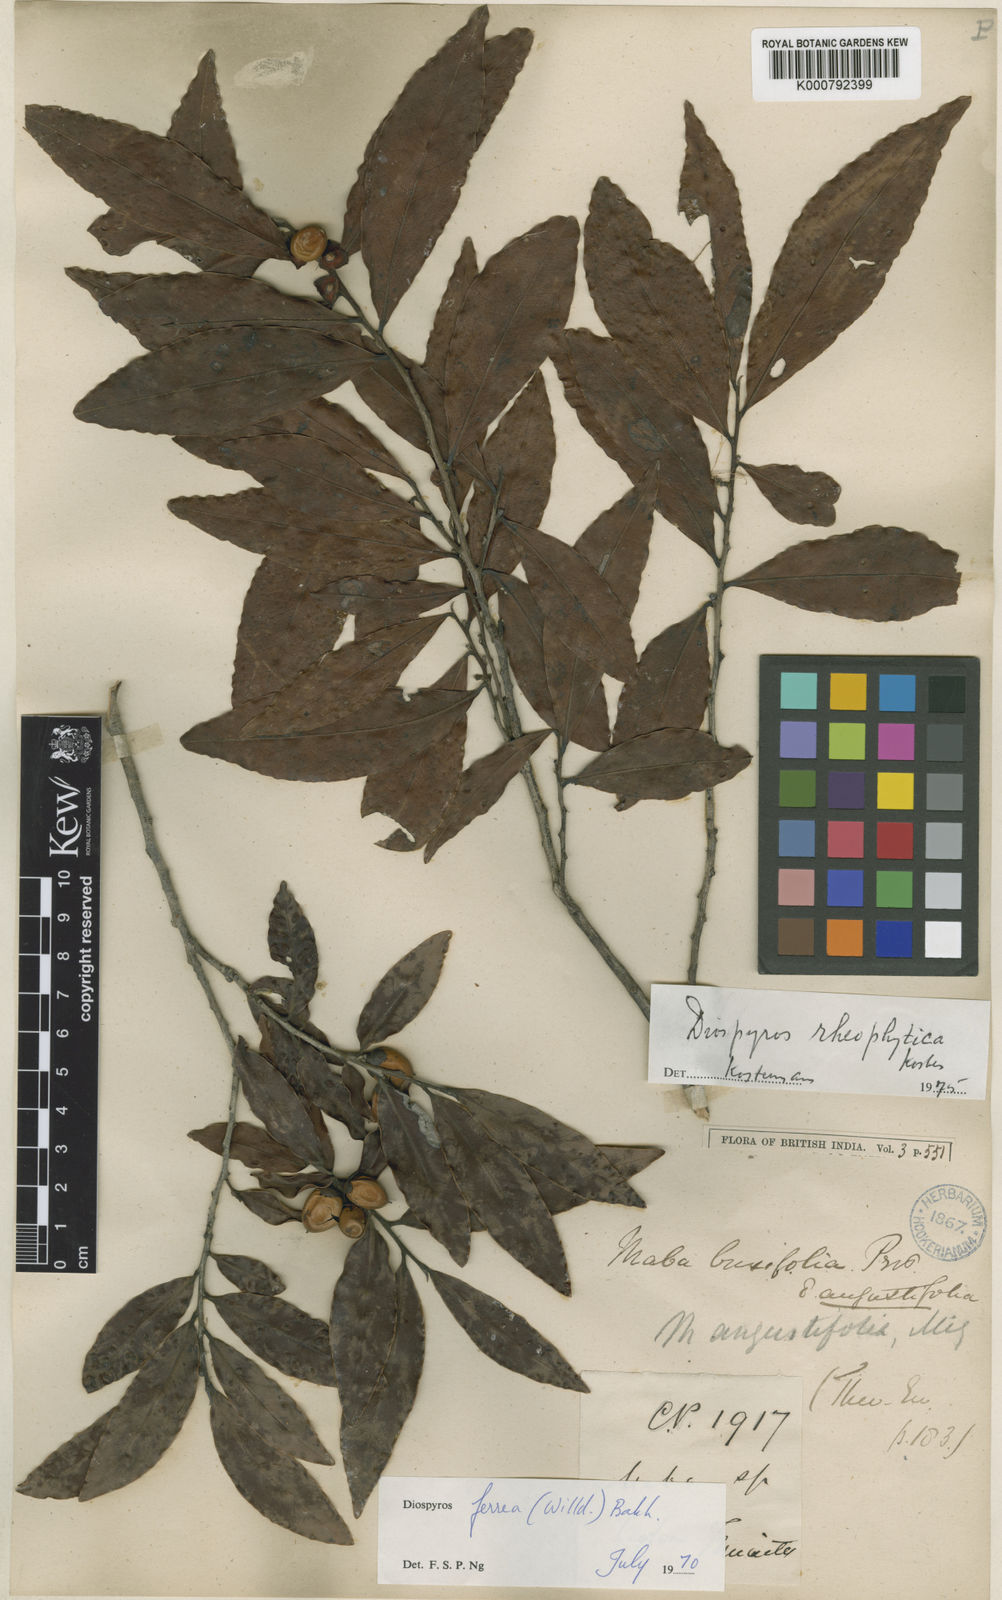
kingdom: Plantae
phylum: Tracheophyta
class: Magnoliopsida
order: Ericales
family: Ebenaceae
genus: Diospyros
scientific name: Diospyros buxifolia
